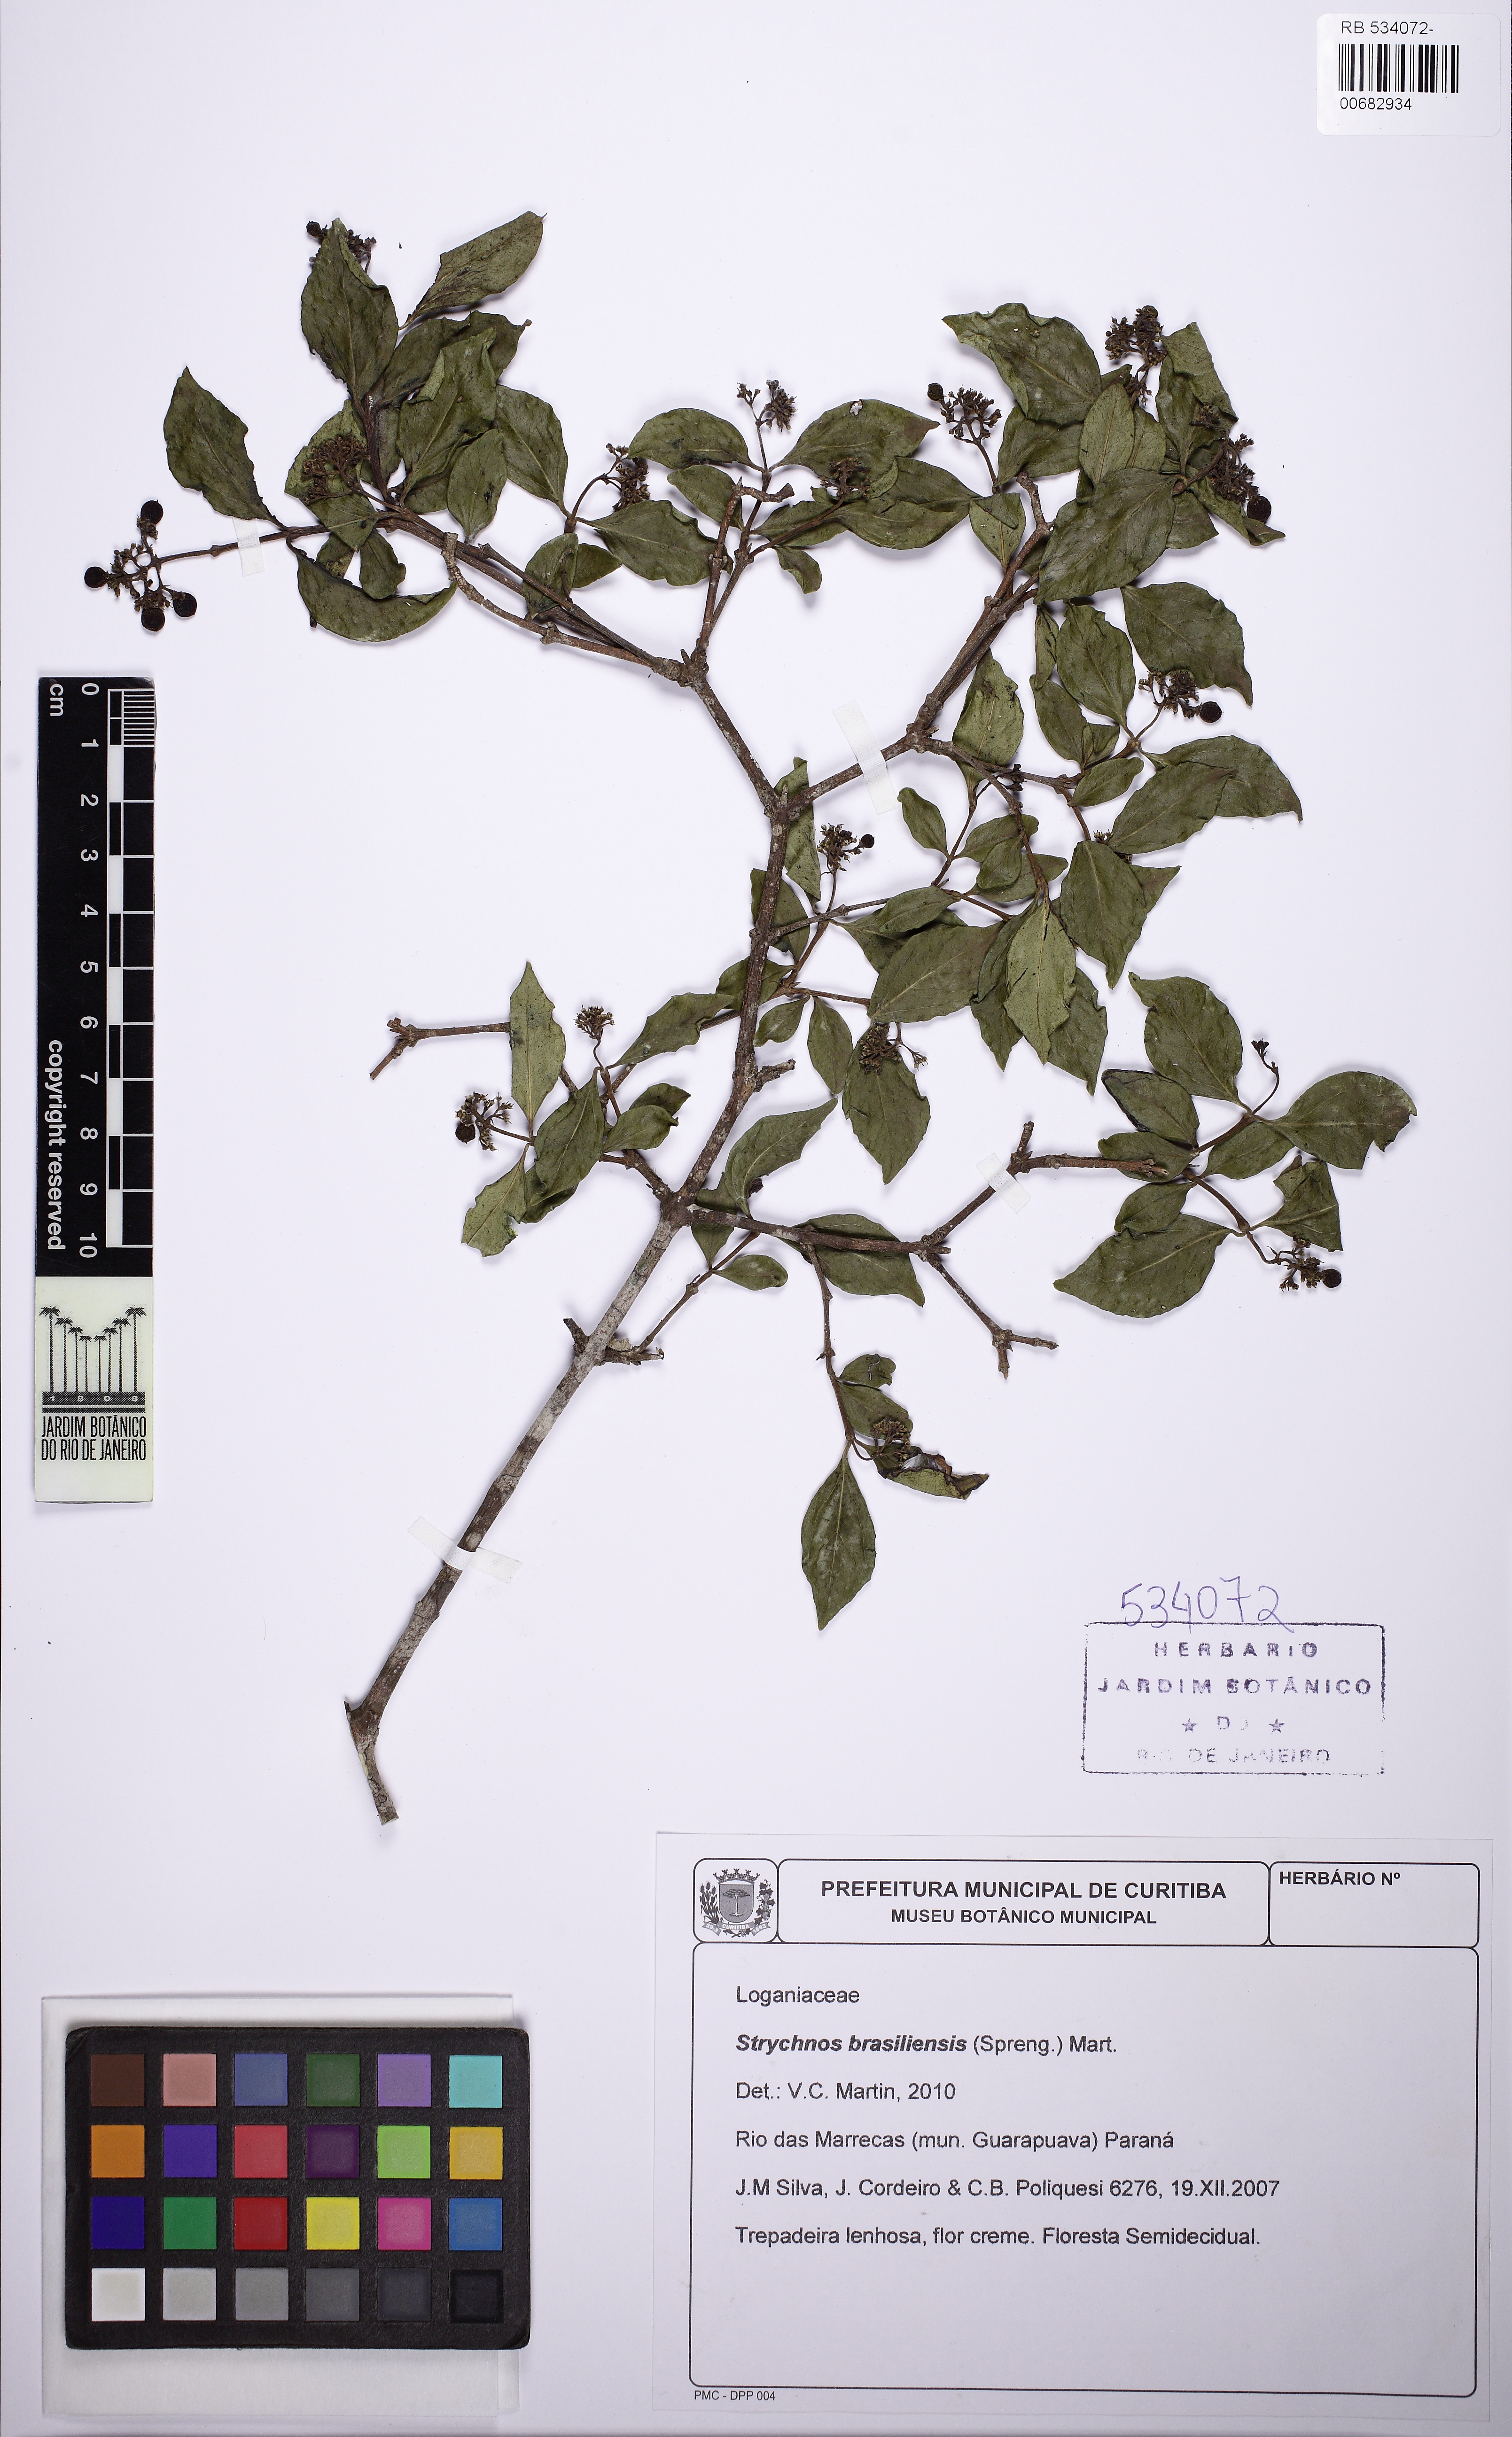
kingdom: Plantae
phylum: Tracheophyta
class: Magnoliopsida
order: Gentianales
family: Loganiaceae
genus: Strychnos
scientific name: Strychnos brasiliensis
